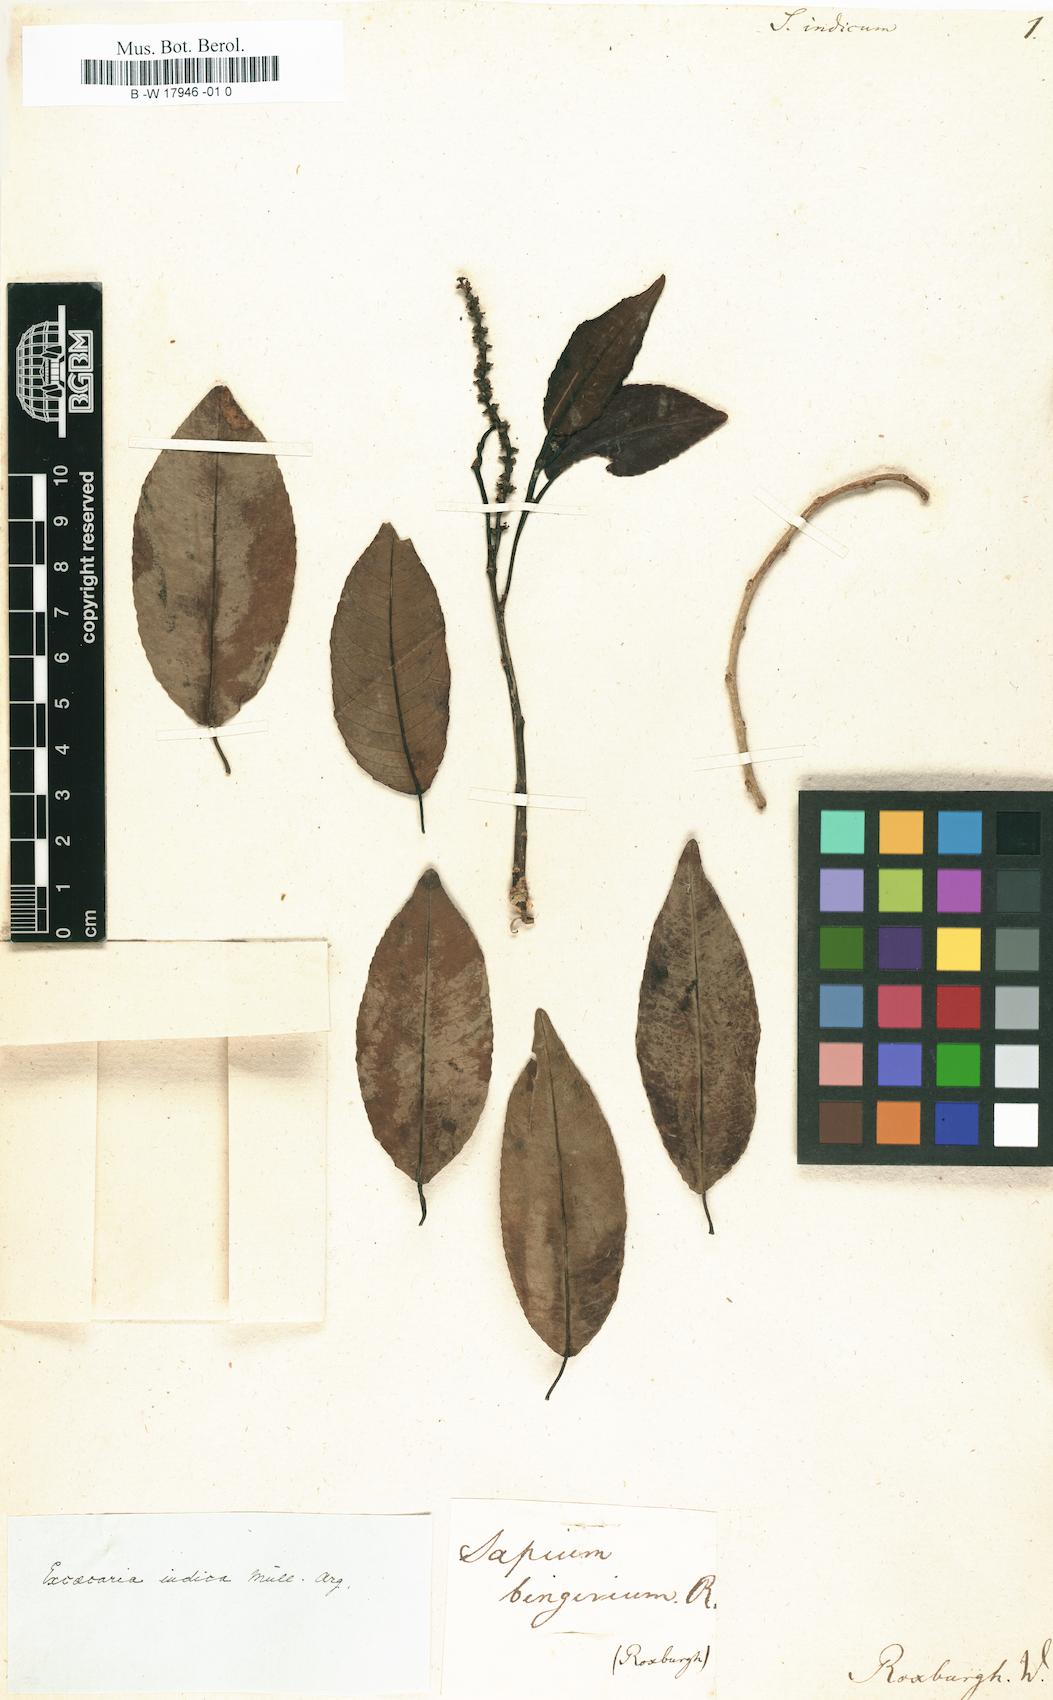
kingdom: Plantae
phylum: Tracheophyta
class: Magnoliopsida
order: Malpighiales
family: Euphorbiaceae
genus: Shirakiopsis
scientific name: Shirakiopsis indica
